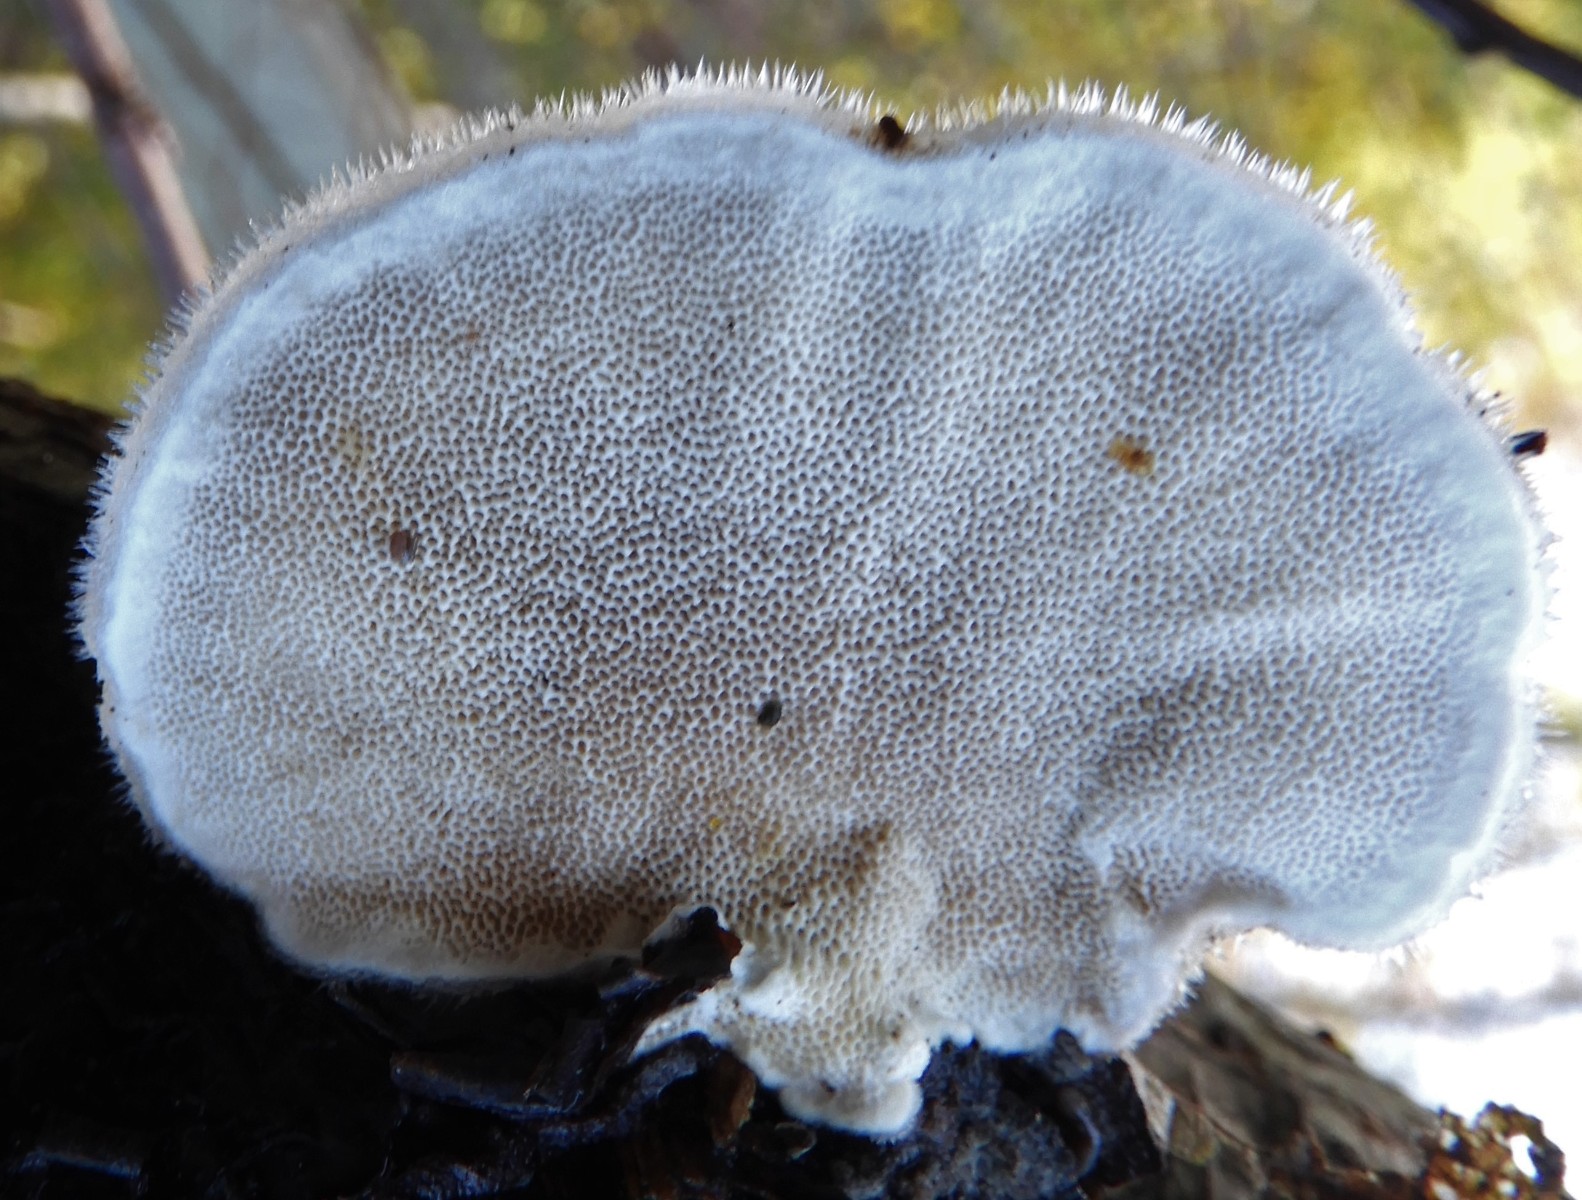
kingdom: Fungi
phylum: Basidiomycota
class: Agaricomycetes
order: Polyporales
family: Polyporaceae
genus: Trametes
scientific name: Trametes hirsuta
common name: håret læderporesvamp
